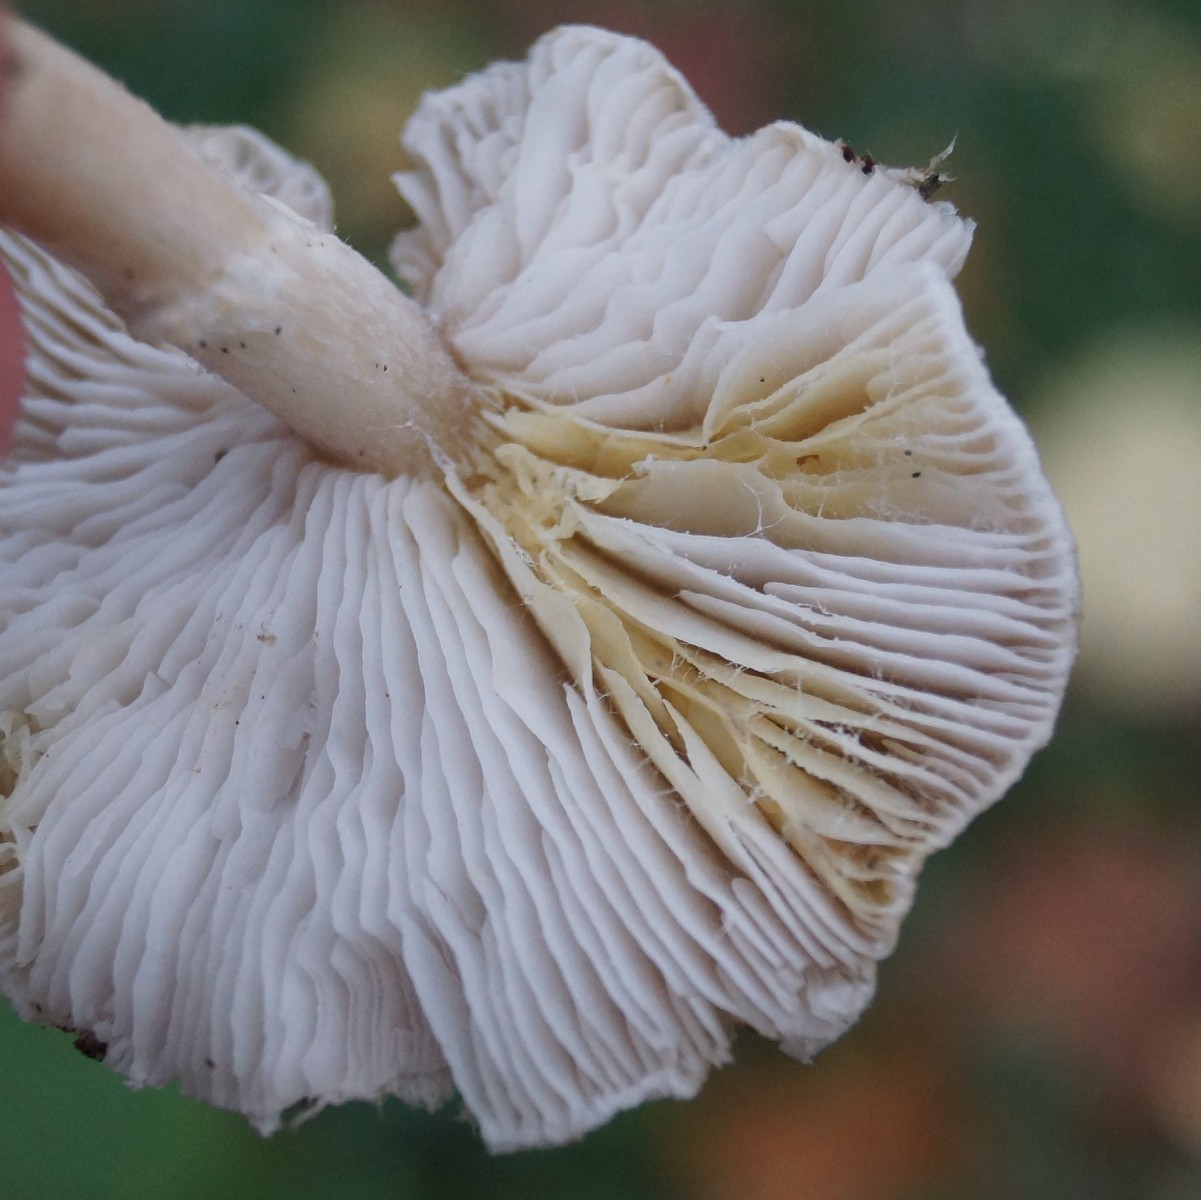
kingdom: Fungi
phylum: Basidiomycota
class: Agaricomycetes
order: Agaricales
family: Tricholomataceae
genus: Tricholoma
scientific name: Tricholoma scalpturatum
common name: gulplettet ridderhat
